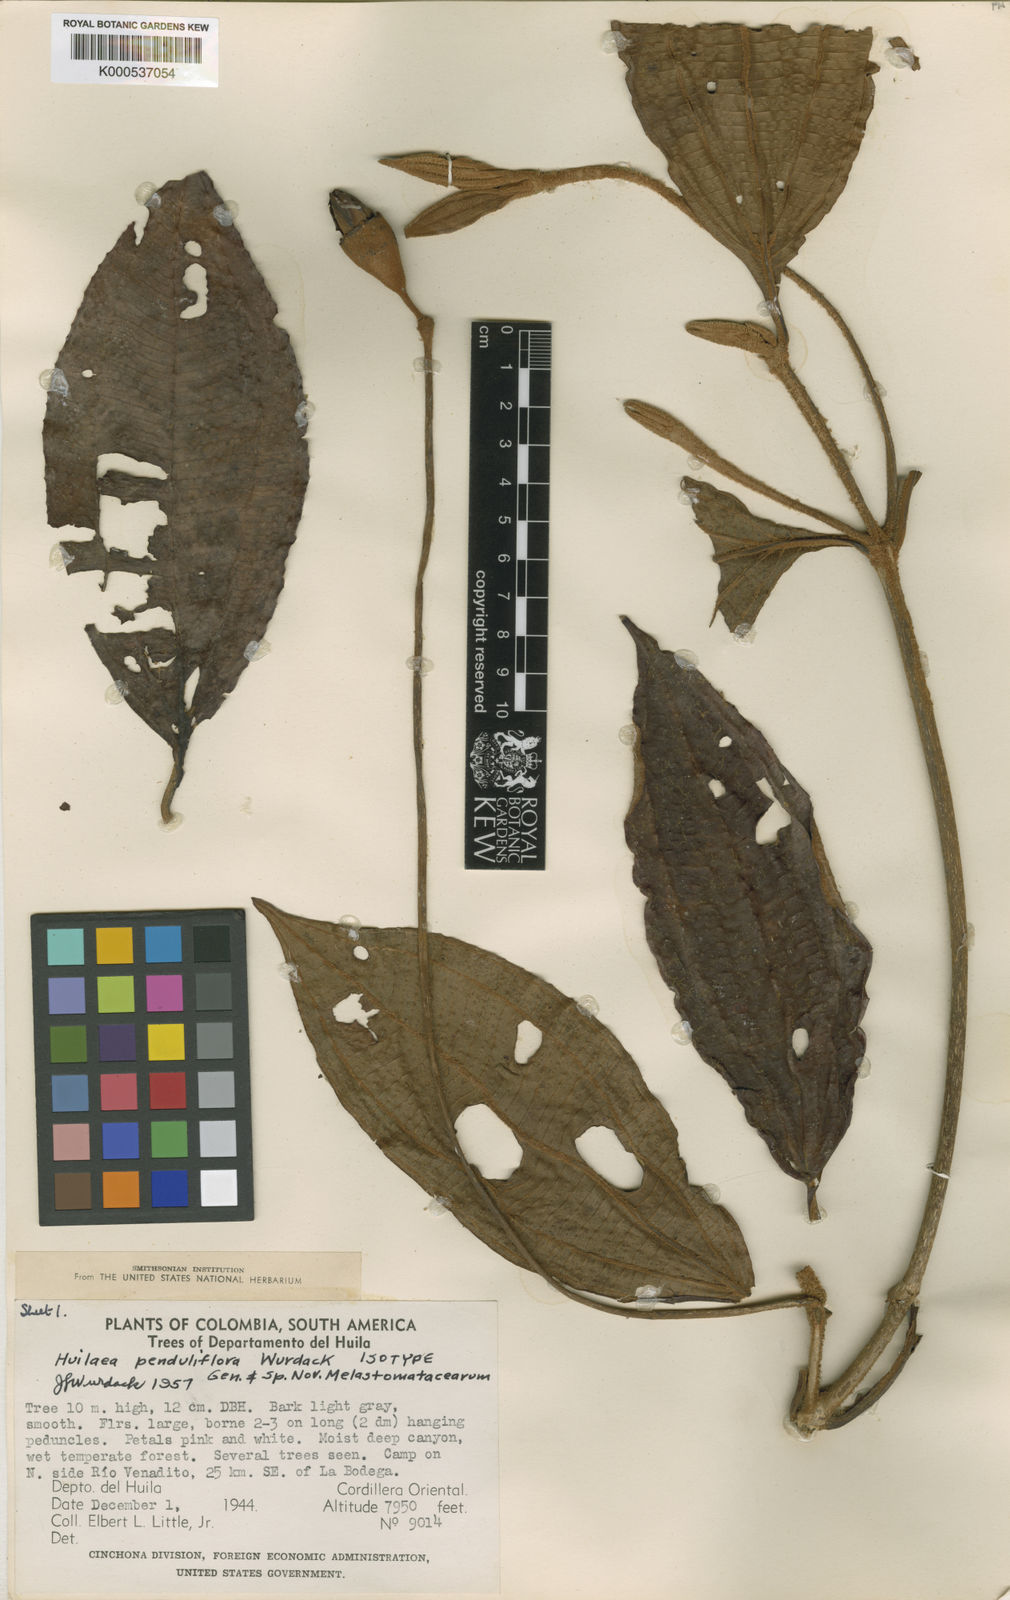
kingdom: Plantae
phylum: Tracheophyta
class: Magnoliopsida
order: Myrtales
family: Melastomataceae
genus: Chalybea
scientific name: Chalybea penduliflora
